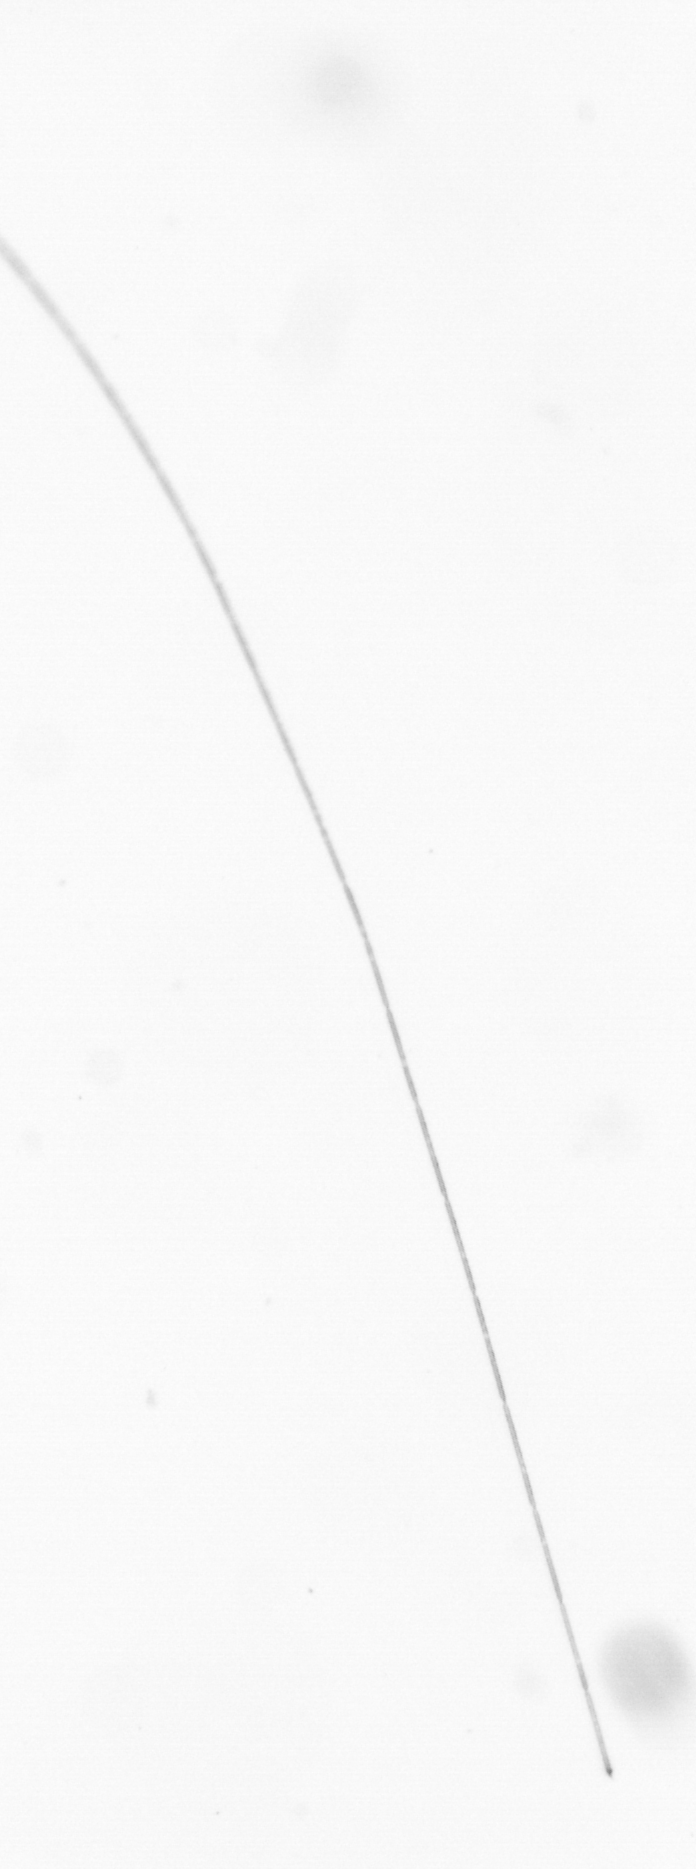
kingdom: Chromista
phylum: Ochrophyta
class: Bacillariophyceae
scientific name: Bacillariophyceae
